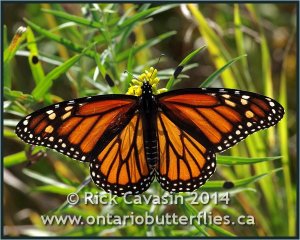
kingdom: Animalia
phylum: Arthropoda
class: Insecta
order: Lepidoptera
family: Nymphalidae
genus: Danaus
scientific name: Danaus plexippus
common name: Monarch
